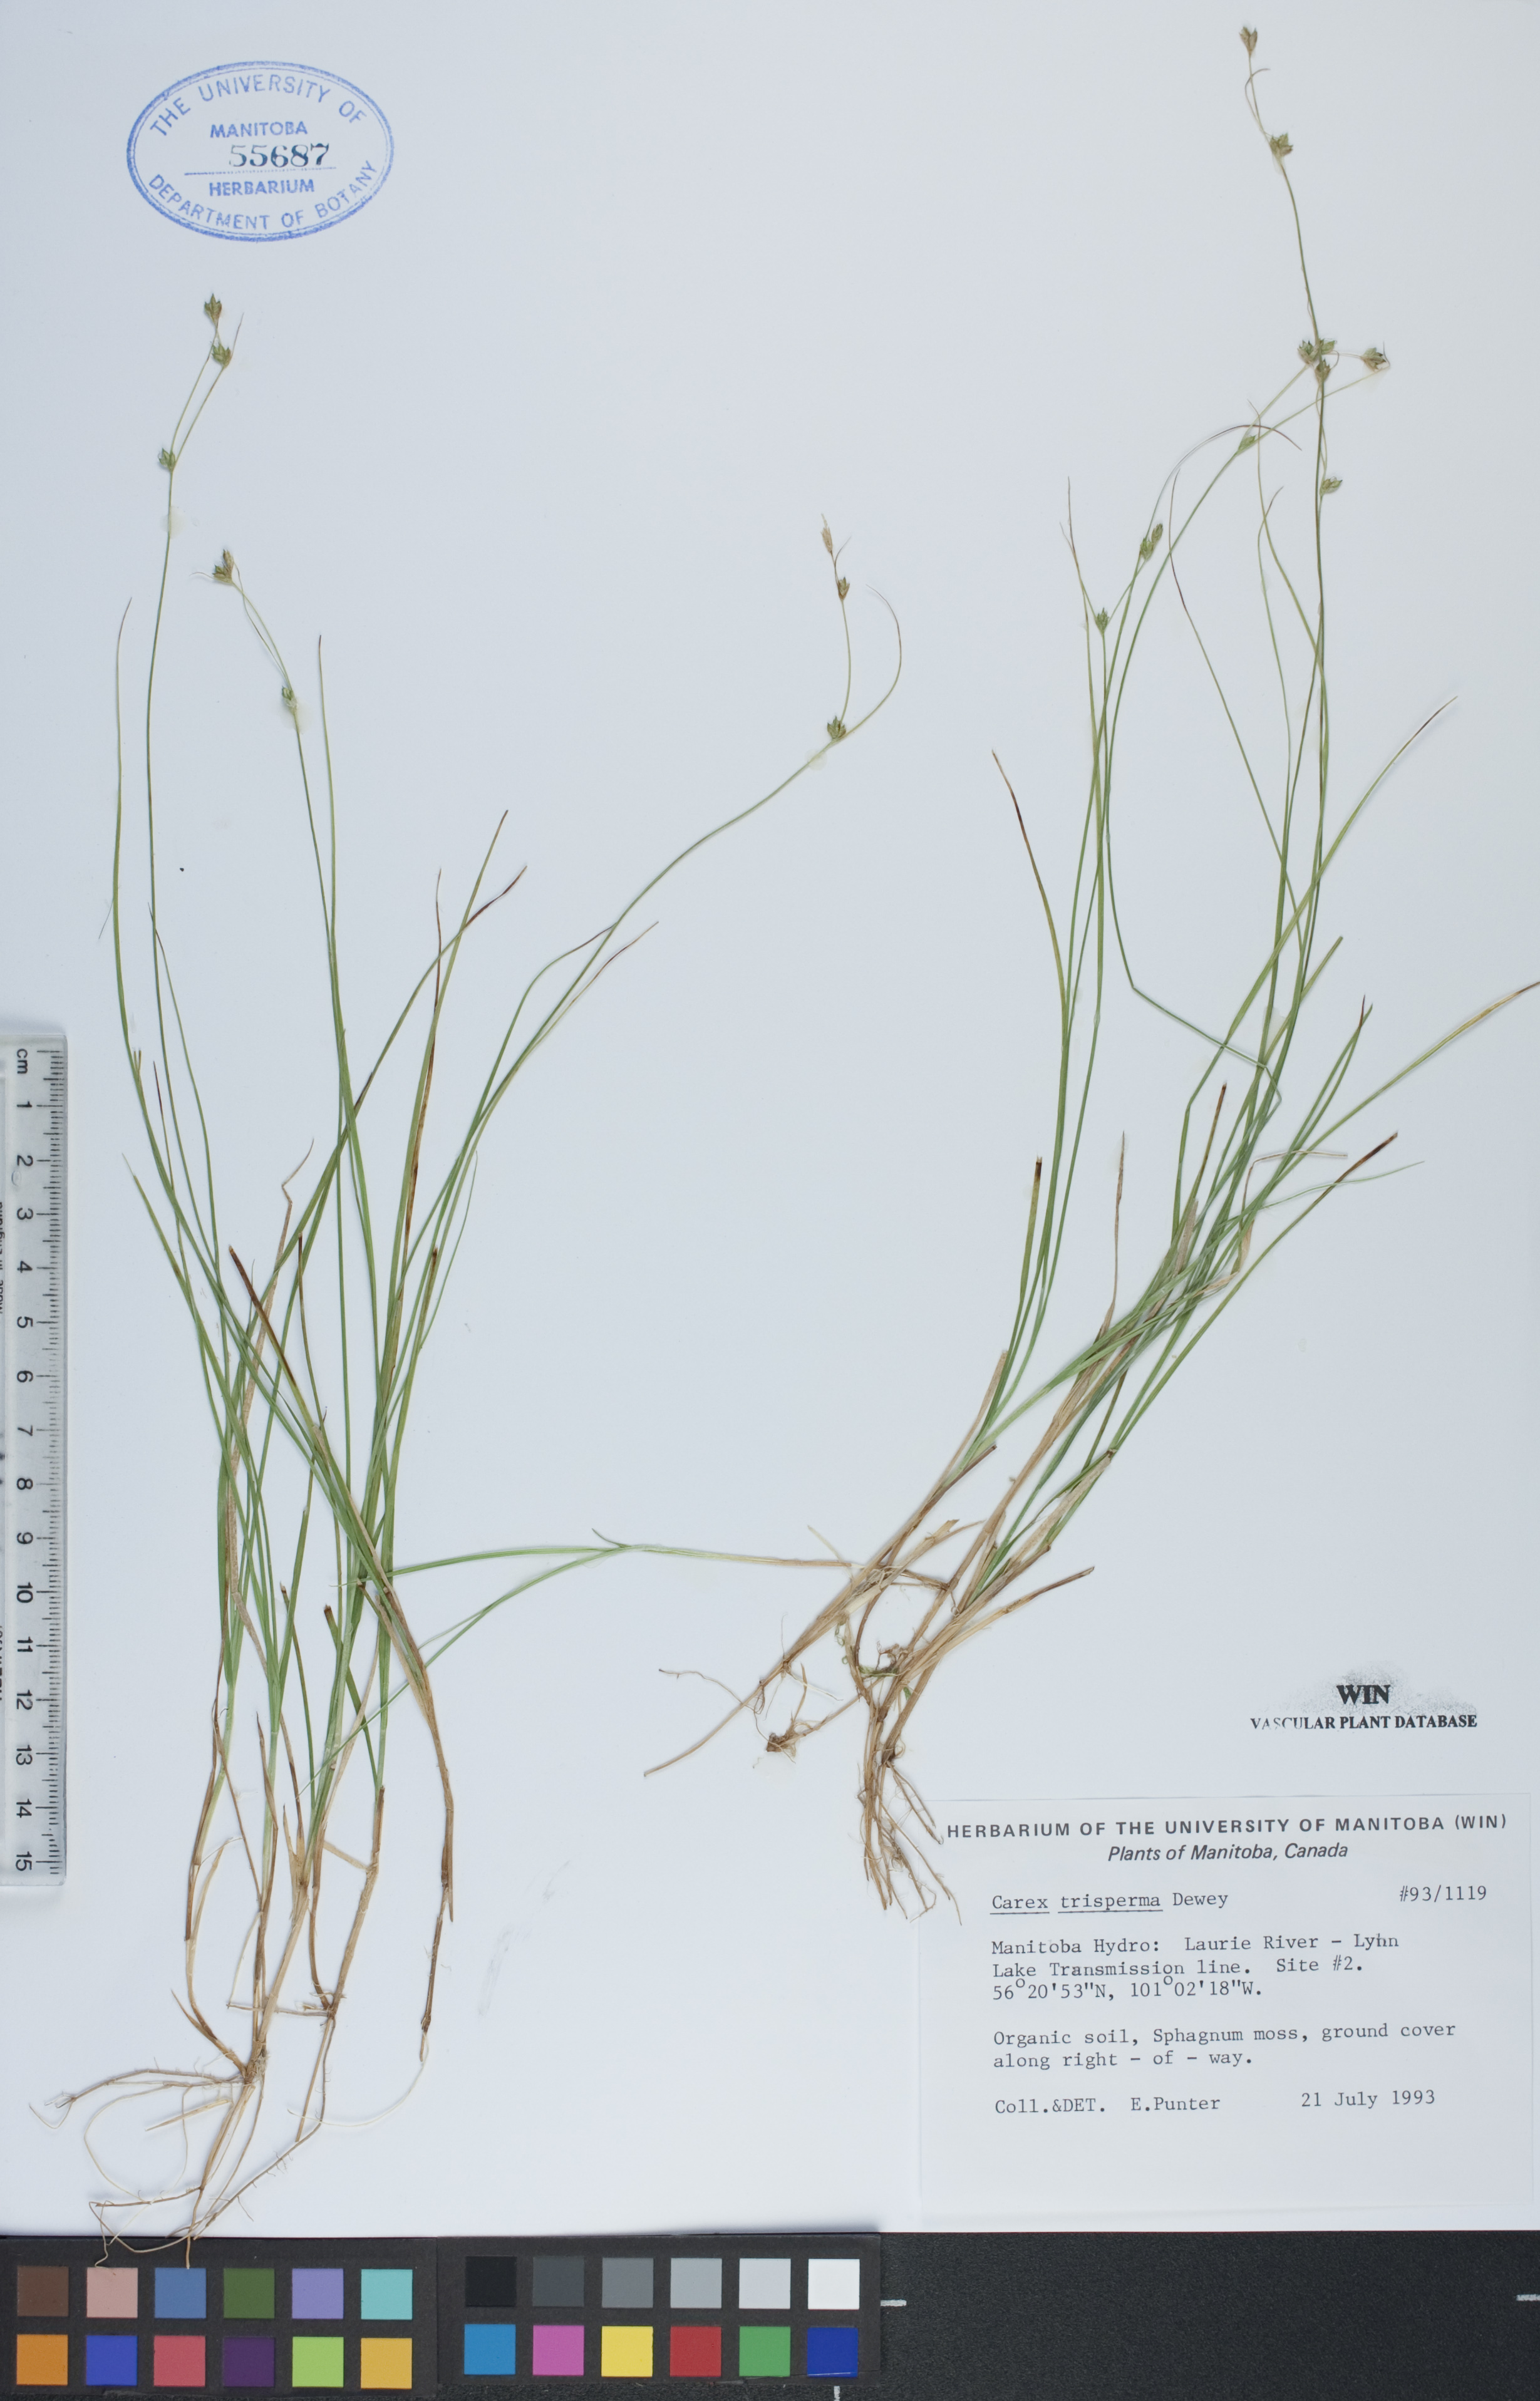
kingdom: Plantae
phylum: Tracheophyta
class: Liliopsida
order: Poales
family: Cyperaceae
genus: Carex
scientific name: Carex trisperma
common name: Three-seeded sedge
